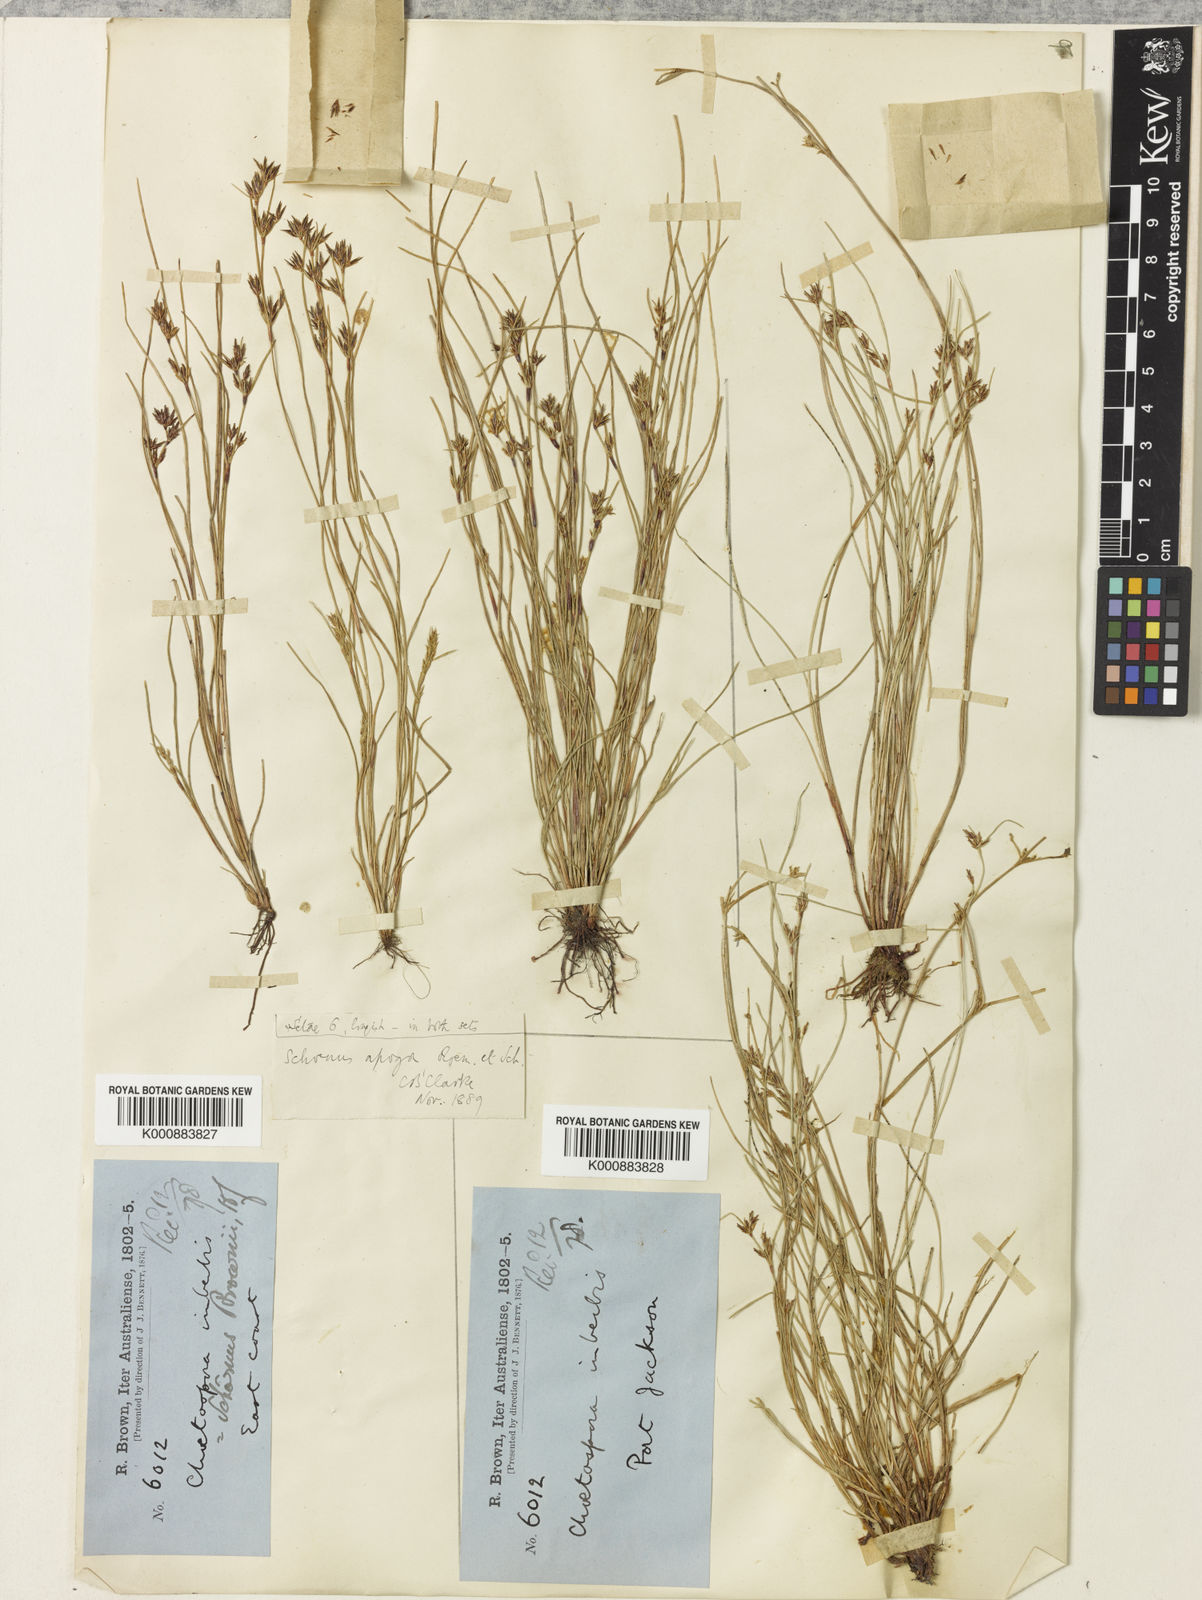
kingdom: Plantae
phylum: Tracheophyta
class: Liliopsida
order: Poales
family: Cyperaceae
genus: Schoenus
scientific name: Schoenus apogon
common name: Smooth bogrush
